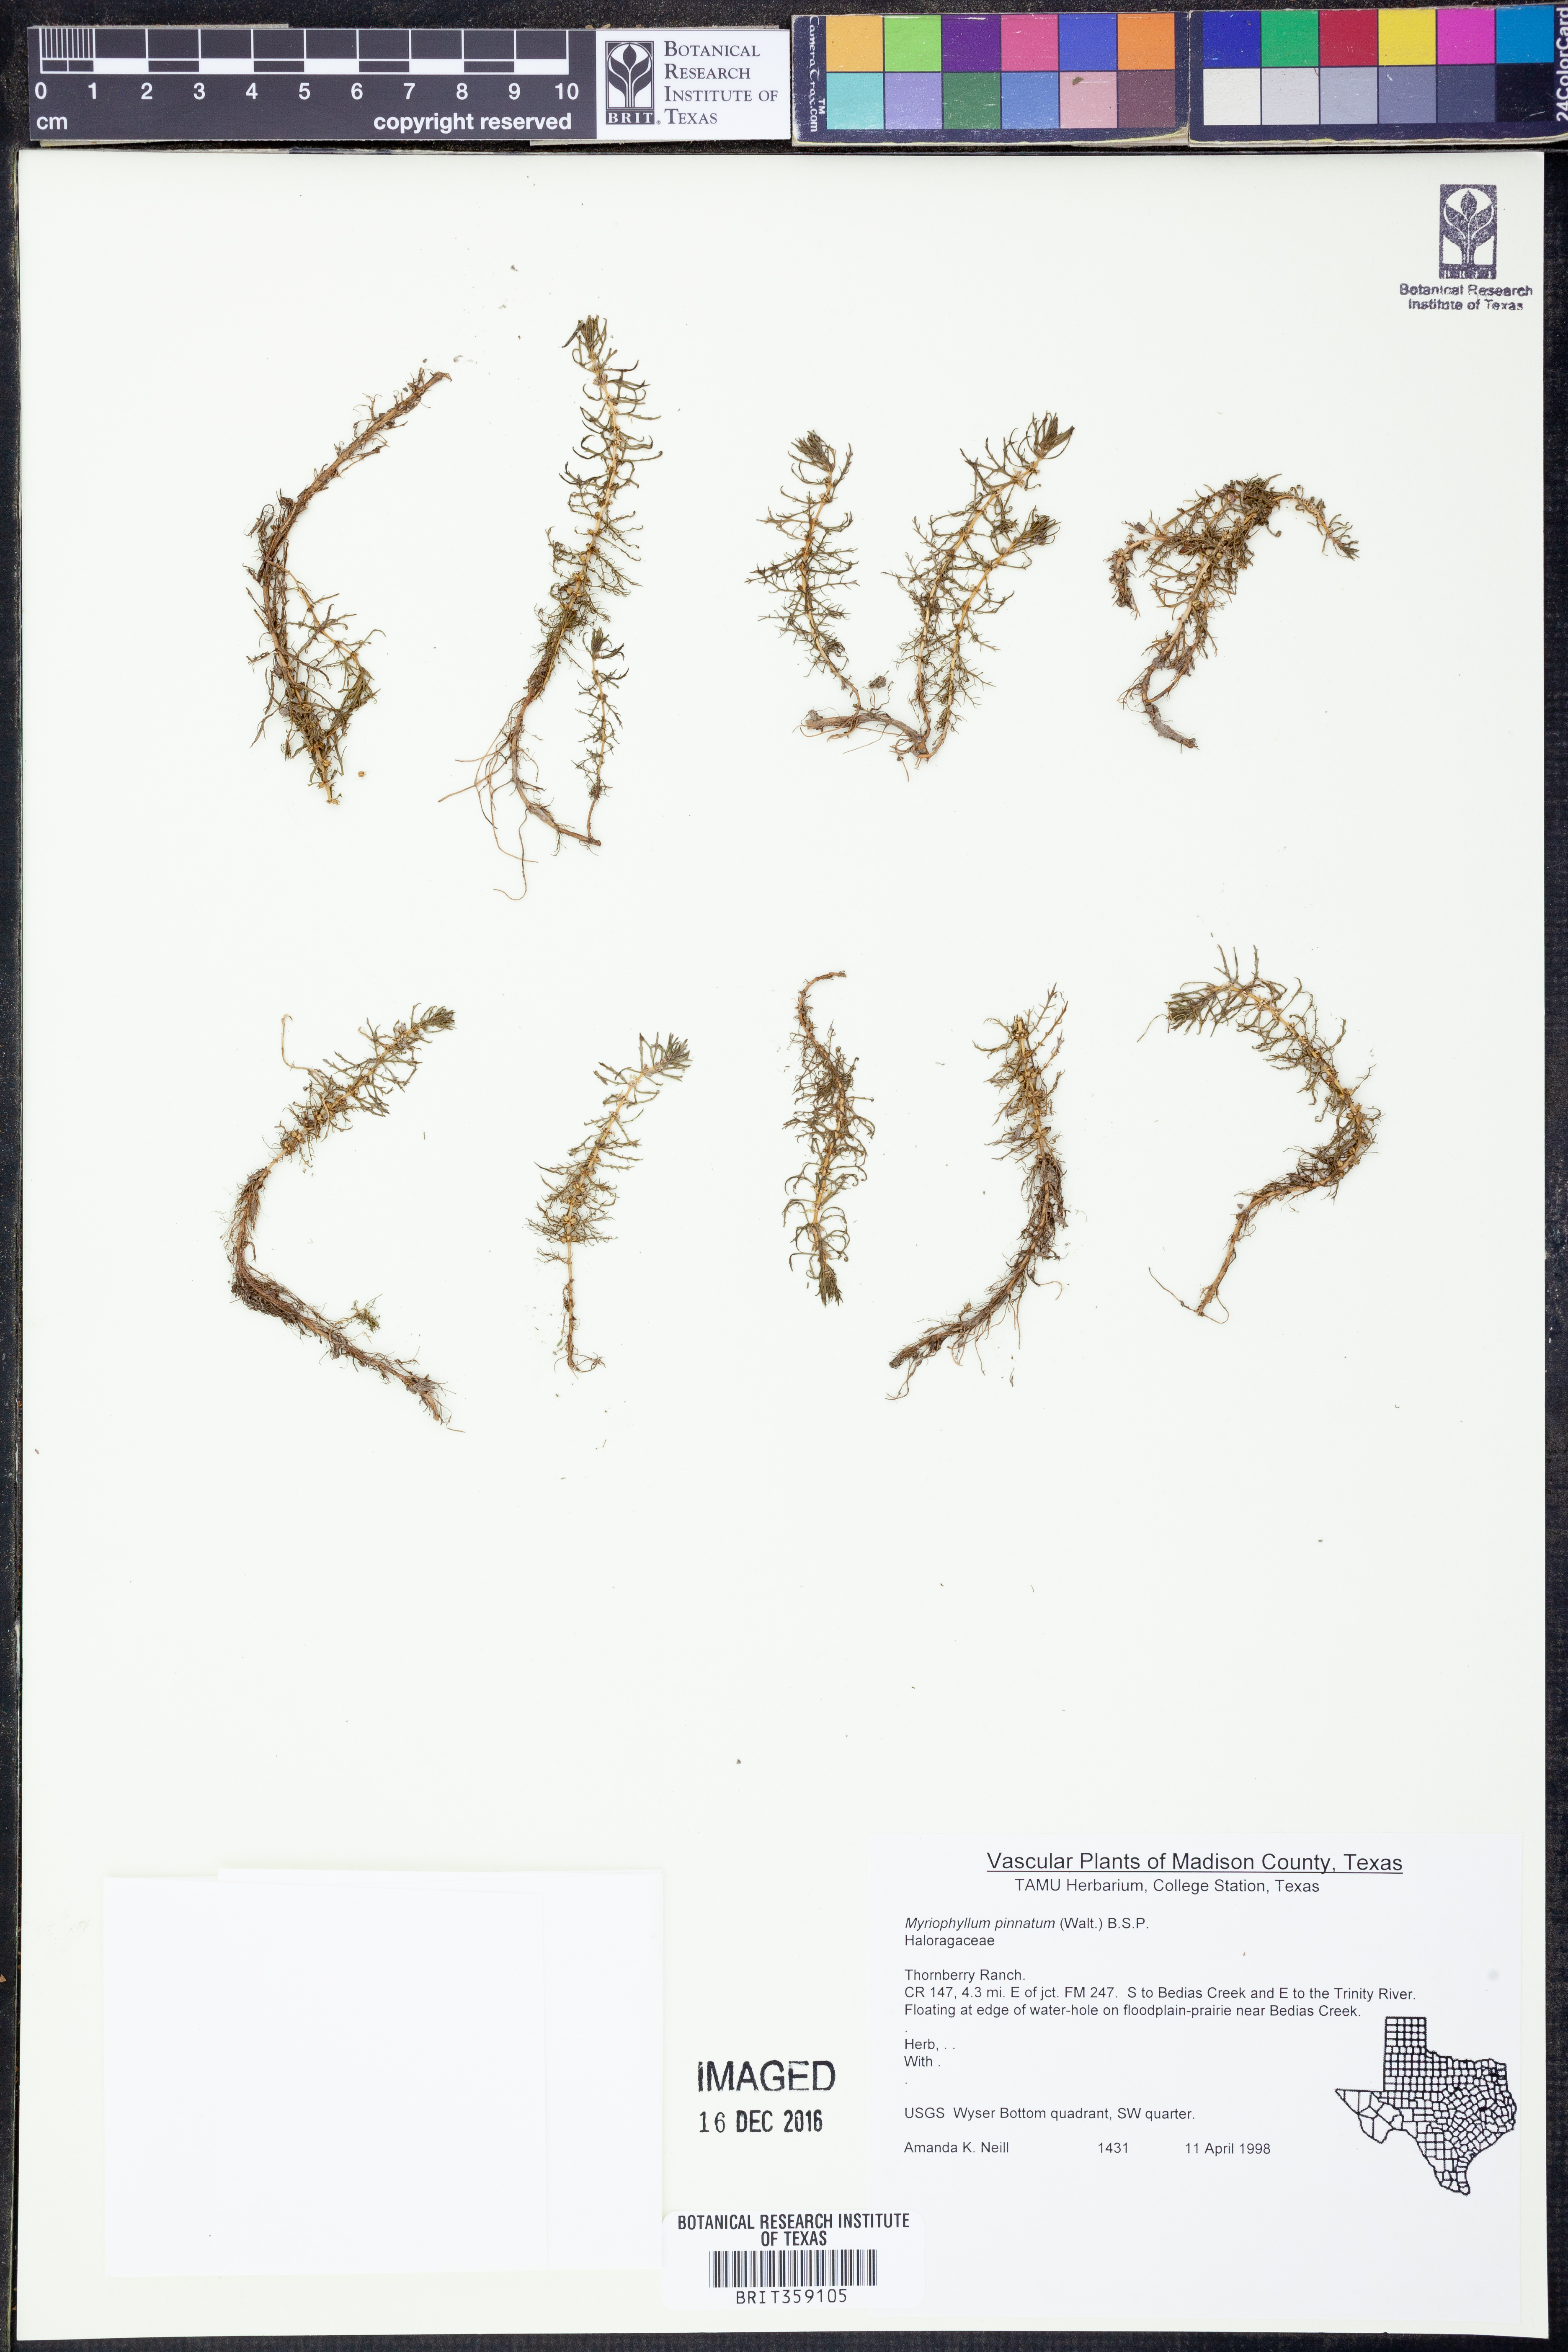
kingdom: Plantae
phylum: Tracheophyta
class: Magnoliopsida
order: Saxifragales
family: Haloragaceae
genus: Myriophyllum
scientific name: Myriophyllum pinnatum
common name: Cut-leaved water-milfoil
